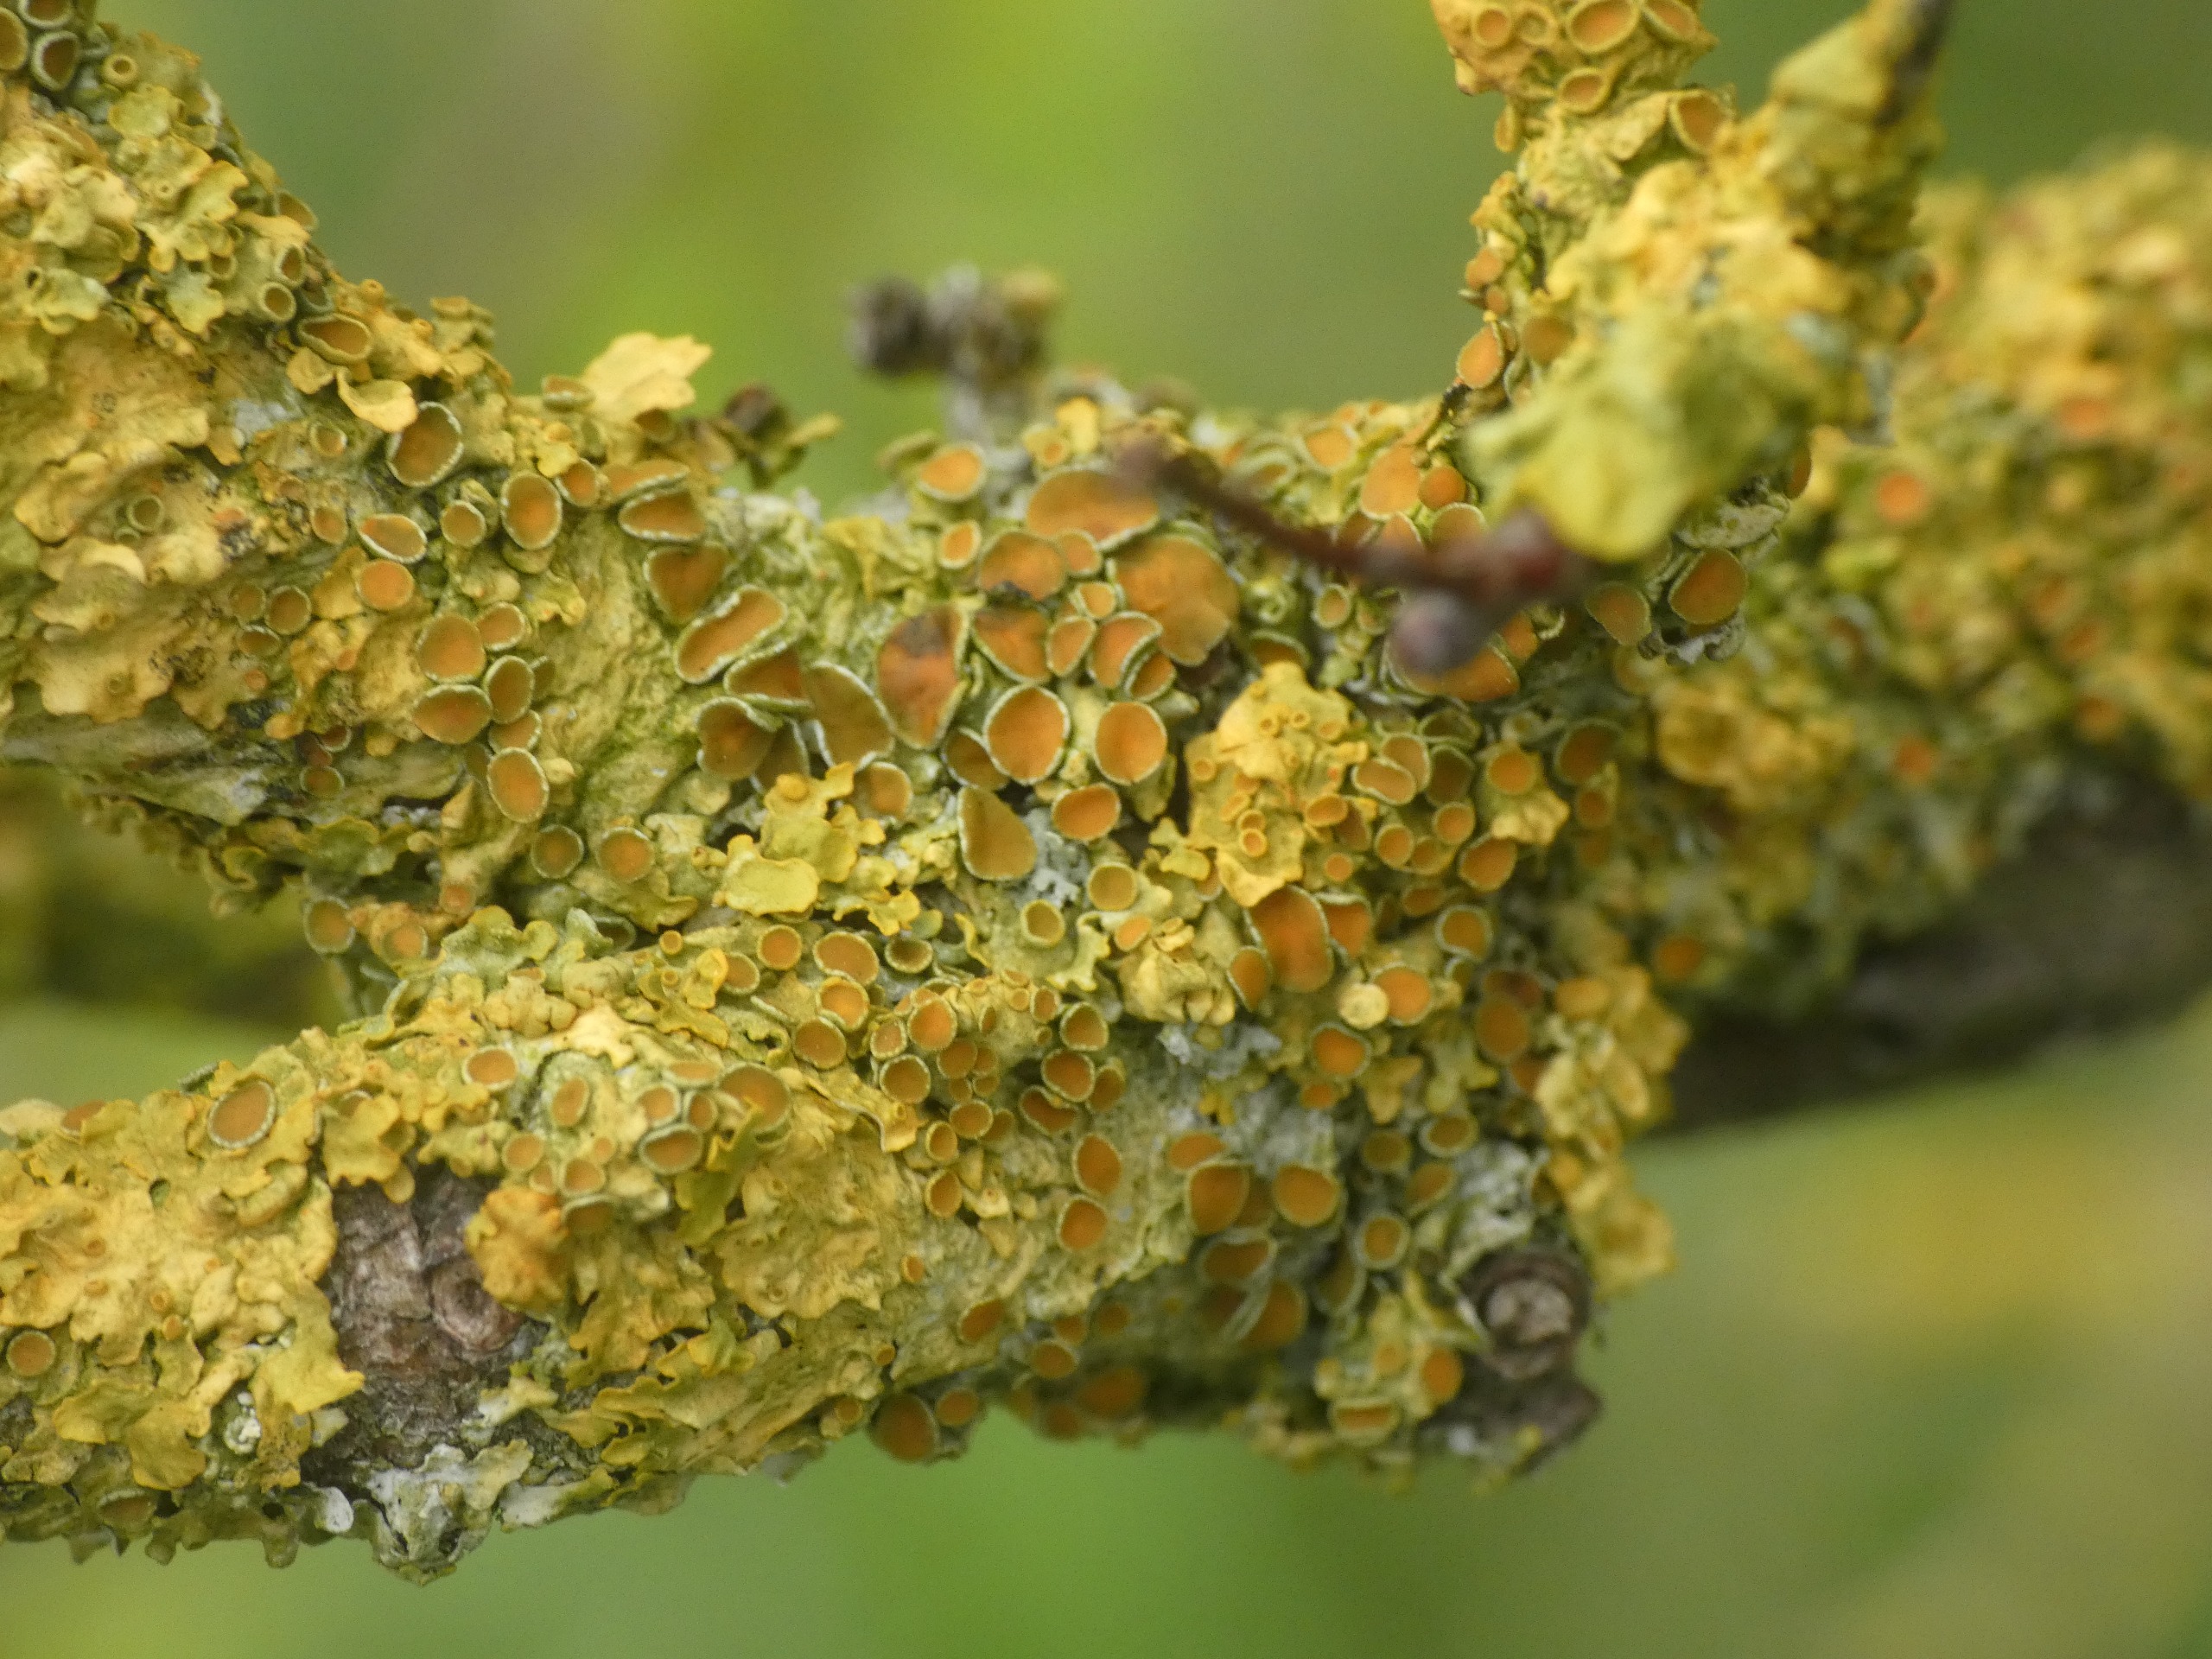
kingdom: Fungi
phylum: Ascomycota
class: Lecanoromycetes
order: Teloschistales
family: Teloschistaceae
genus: Xanthoria
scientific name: Xanthoria parietina
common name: Almindelig væggelav
